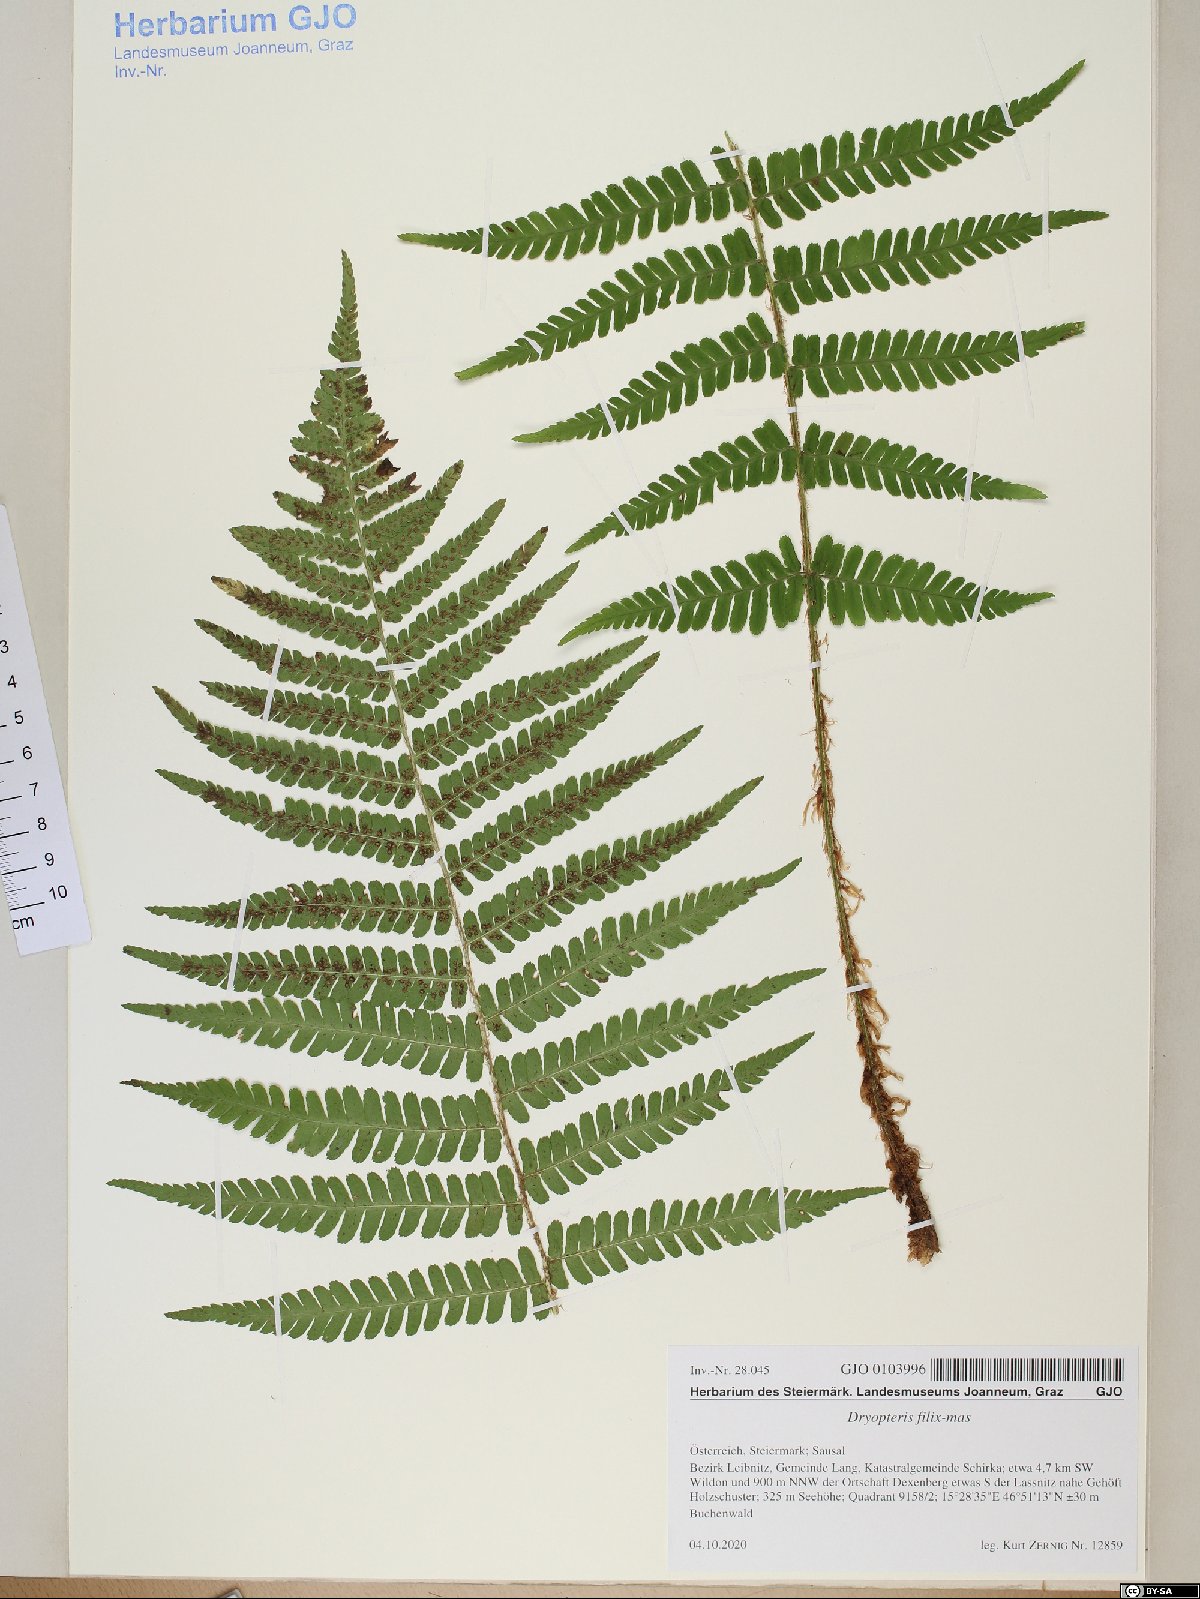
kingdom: Plantae
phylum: Tracheophyta
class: Polypodiopsida
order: Polypodiales
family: Dryopteridaceae
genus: Dryopteris
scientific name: Dryopteris filix-mas
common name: Male fern
